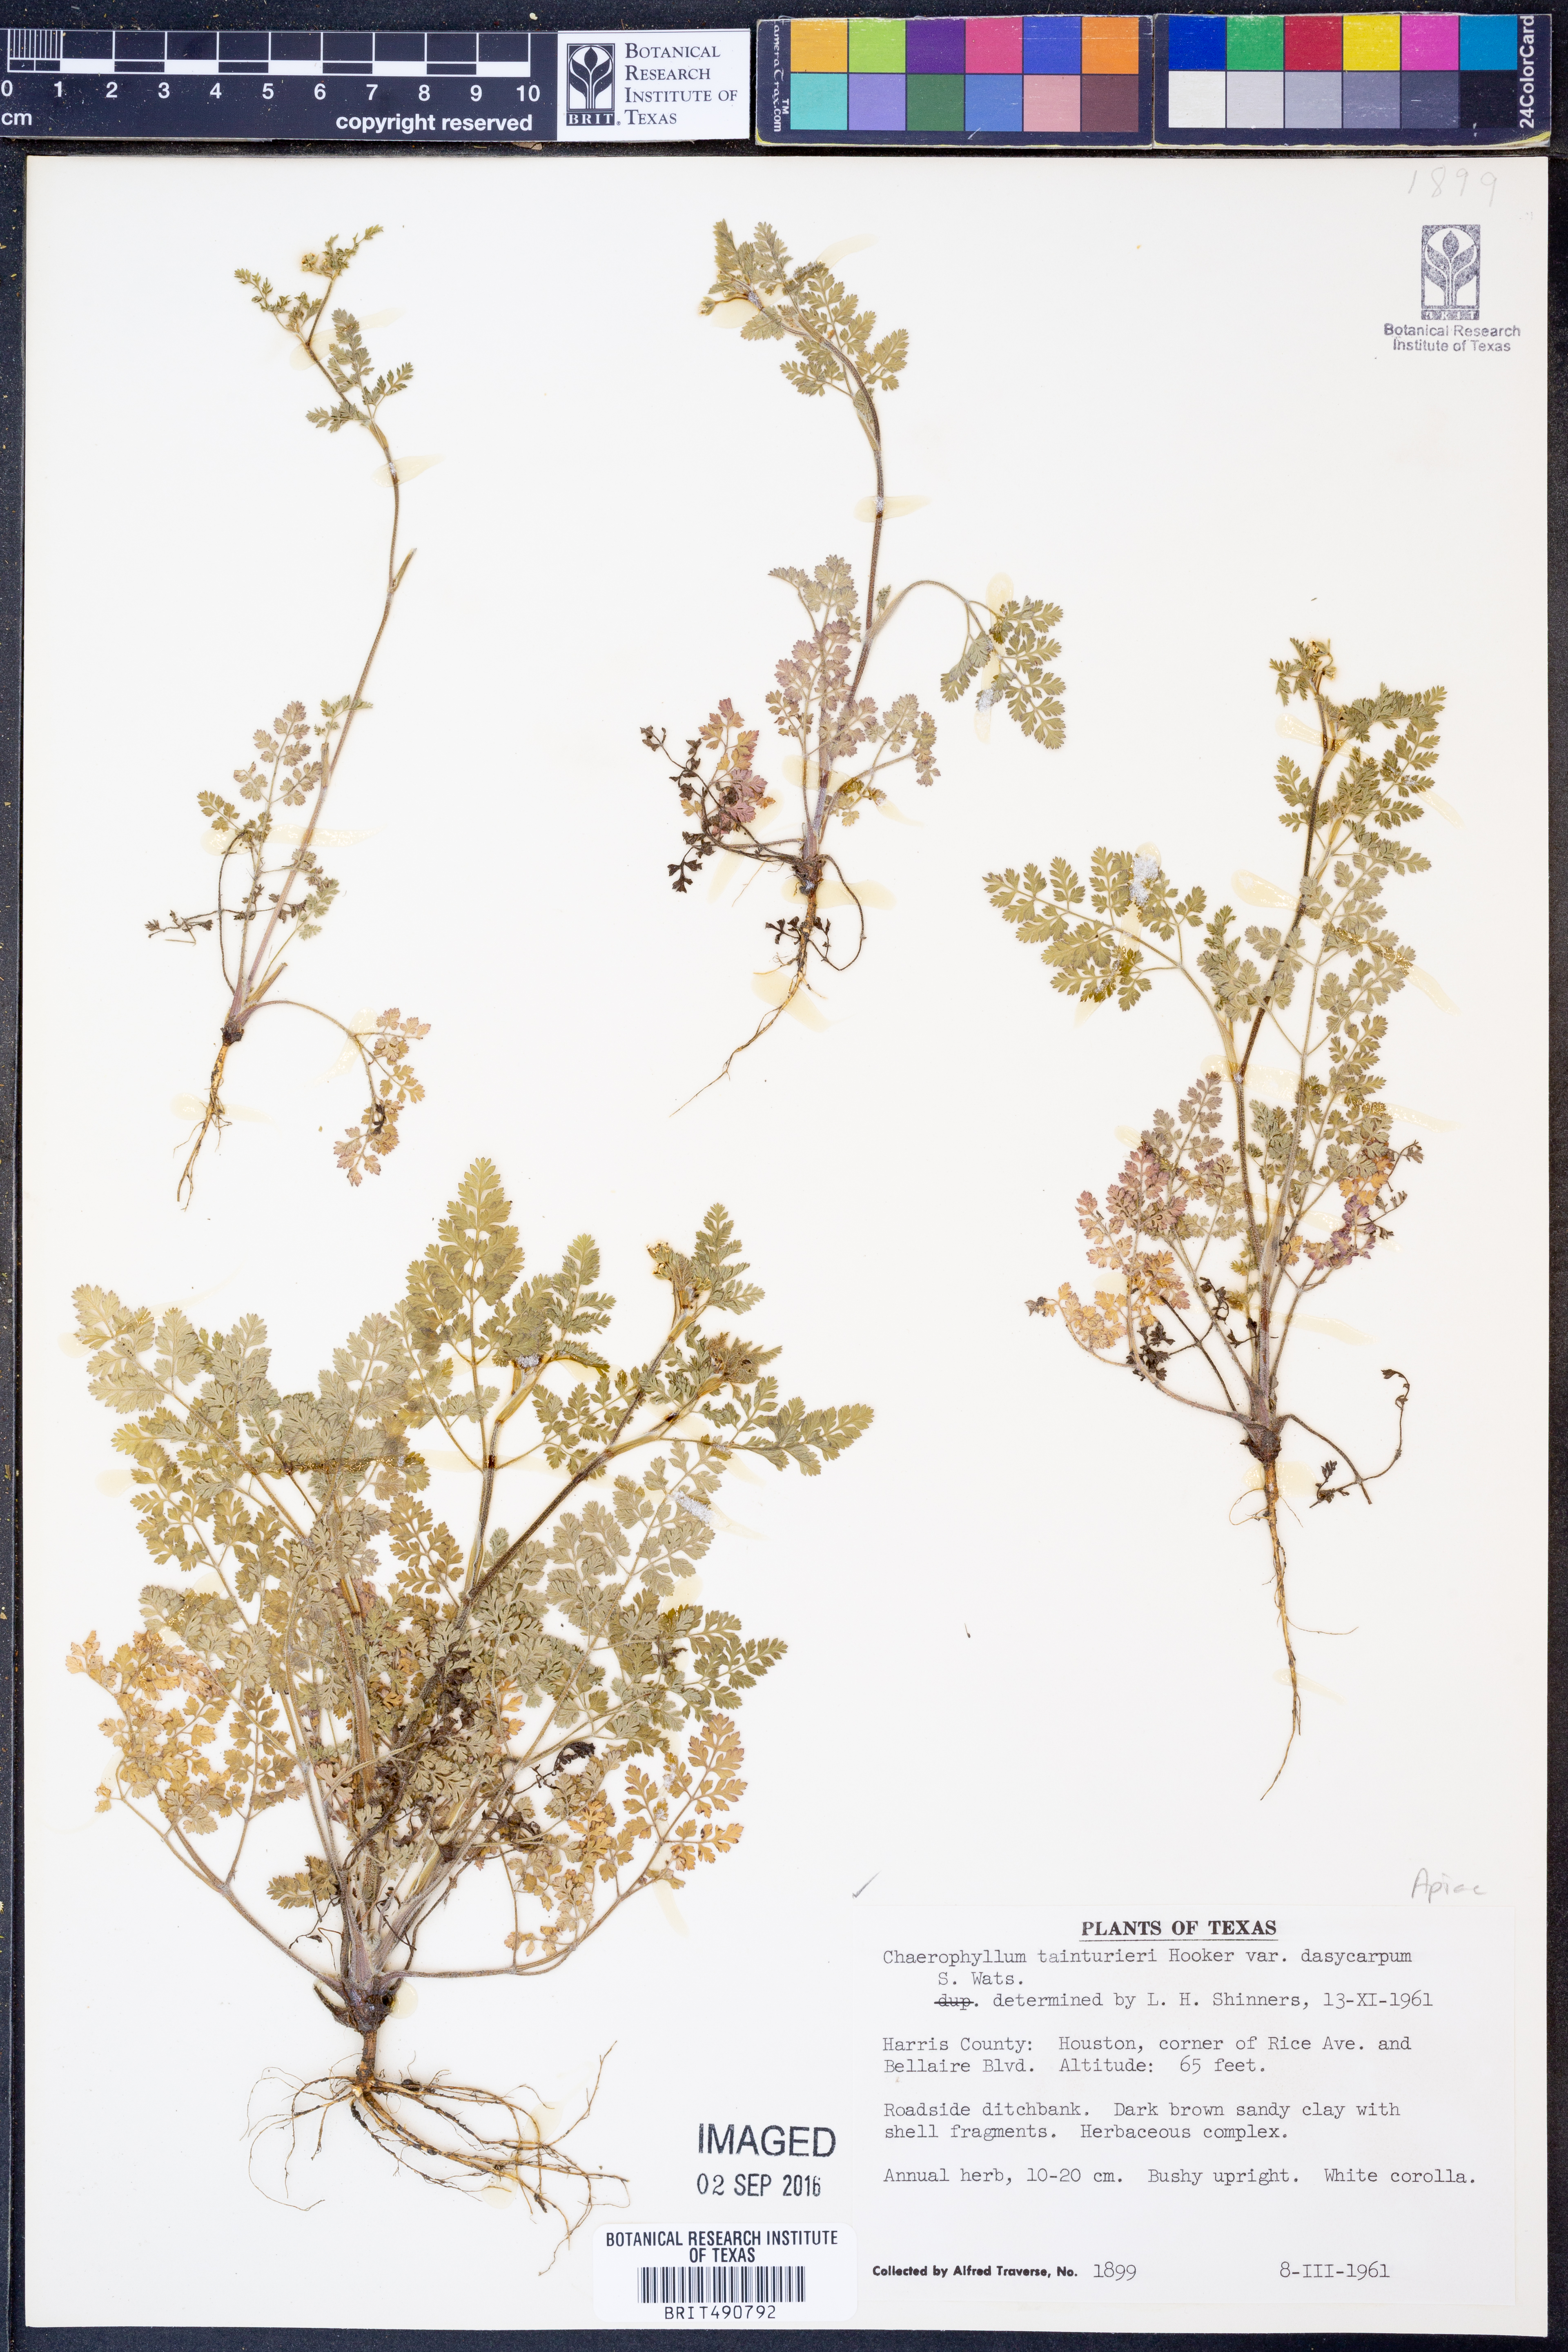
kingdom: Plantae
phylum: Tracheophyta
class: Magnoliopsida
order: Apiales
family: Apiaceae
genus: Chaerophyllum
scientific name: Chaerophyllum dasycarpum
